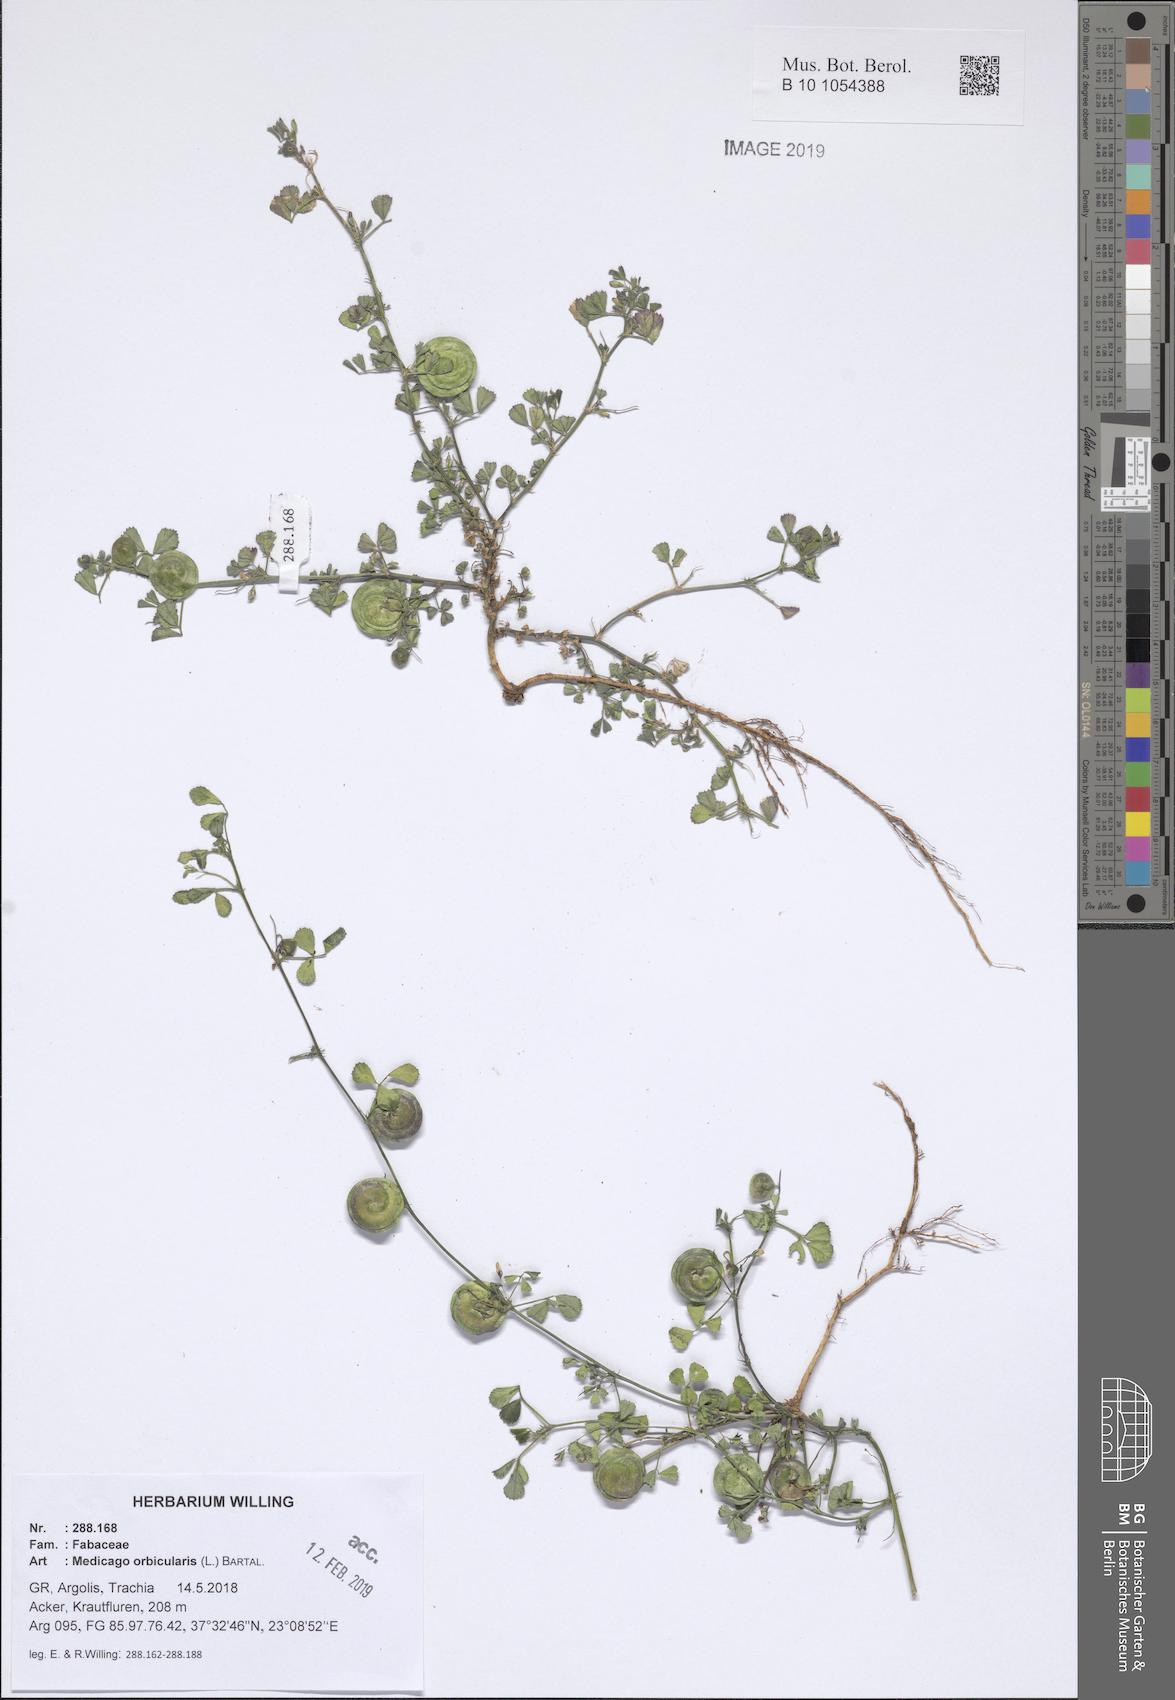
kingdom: Plantae
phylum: Tracheophyta
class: Magnoliopsida
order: Fabales
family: Fabaceae
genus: Medicago
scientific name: Medicago orbicularis
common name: Button medick
